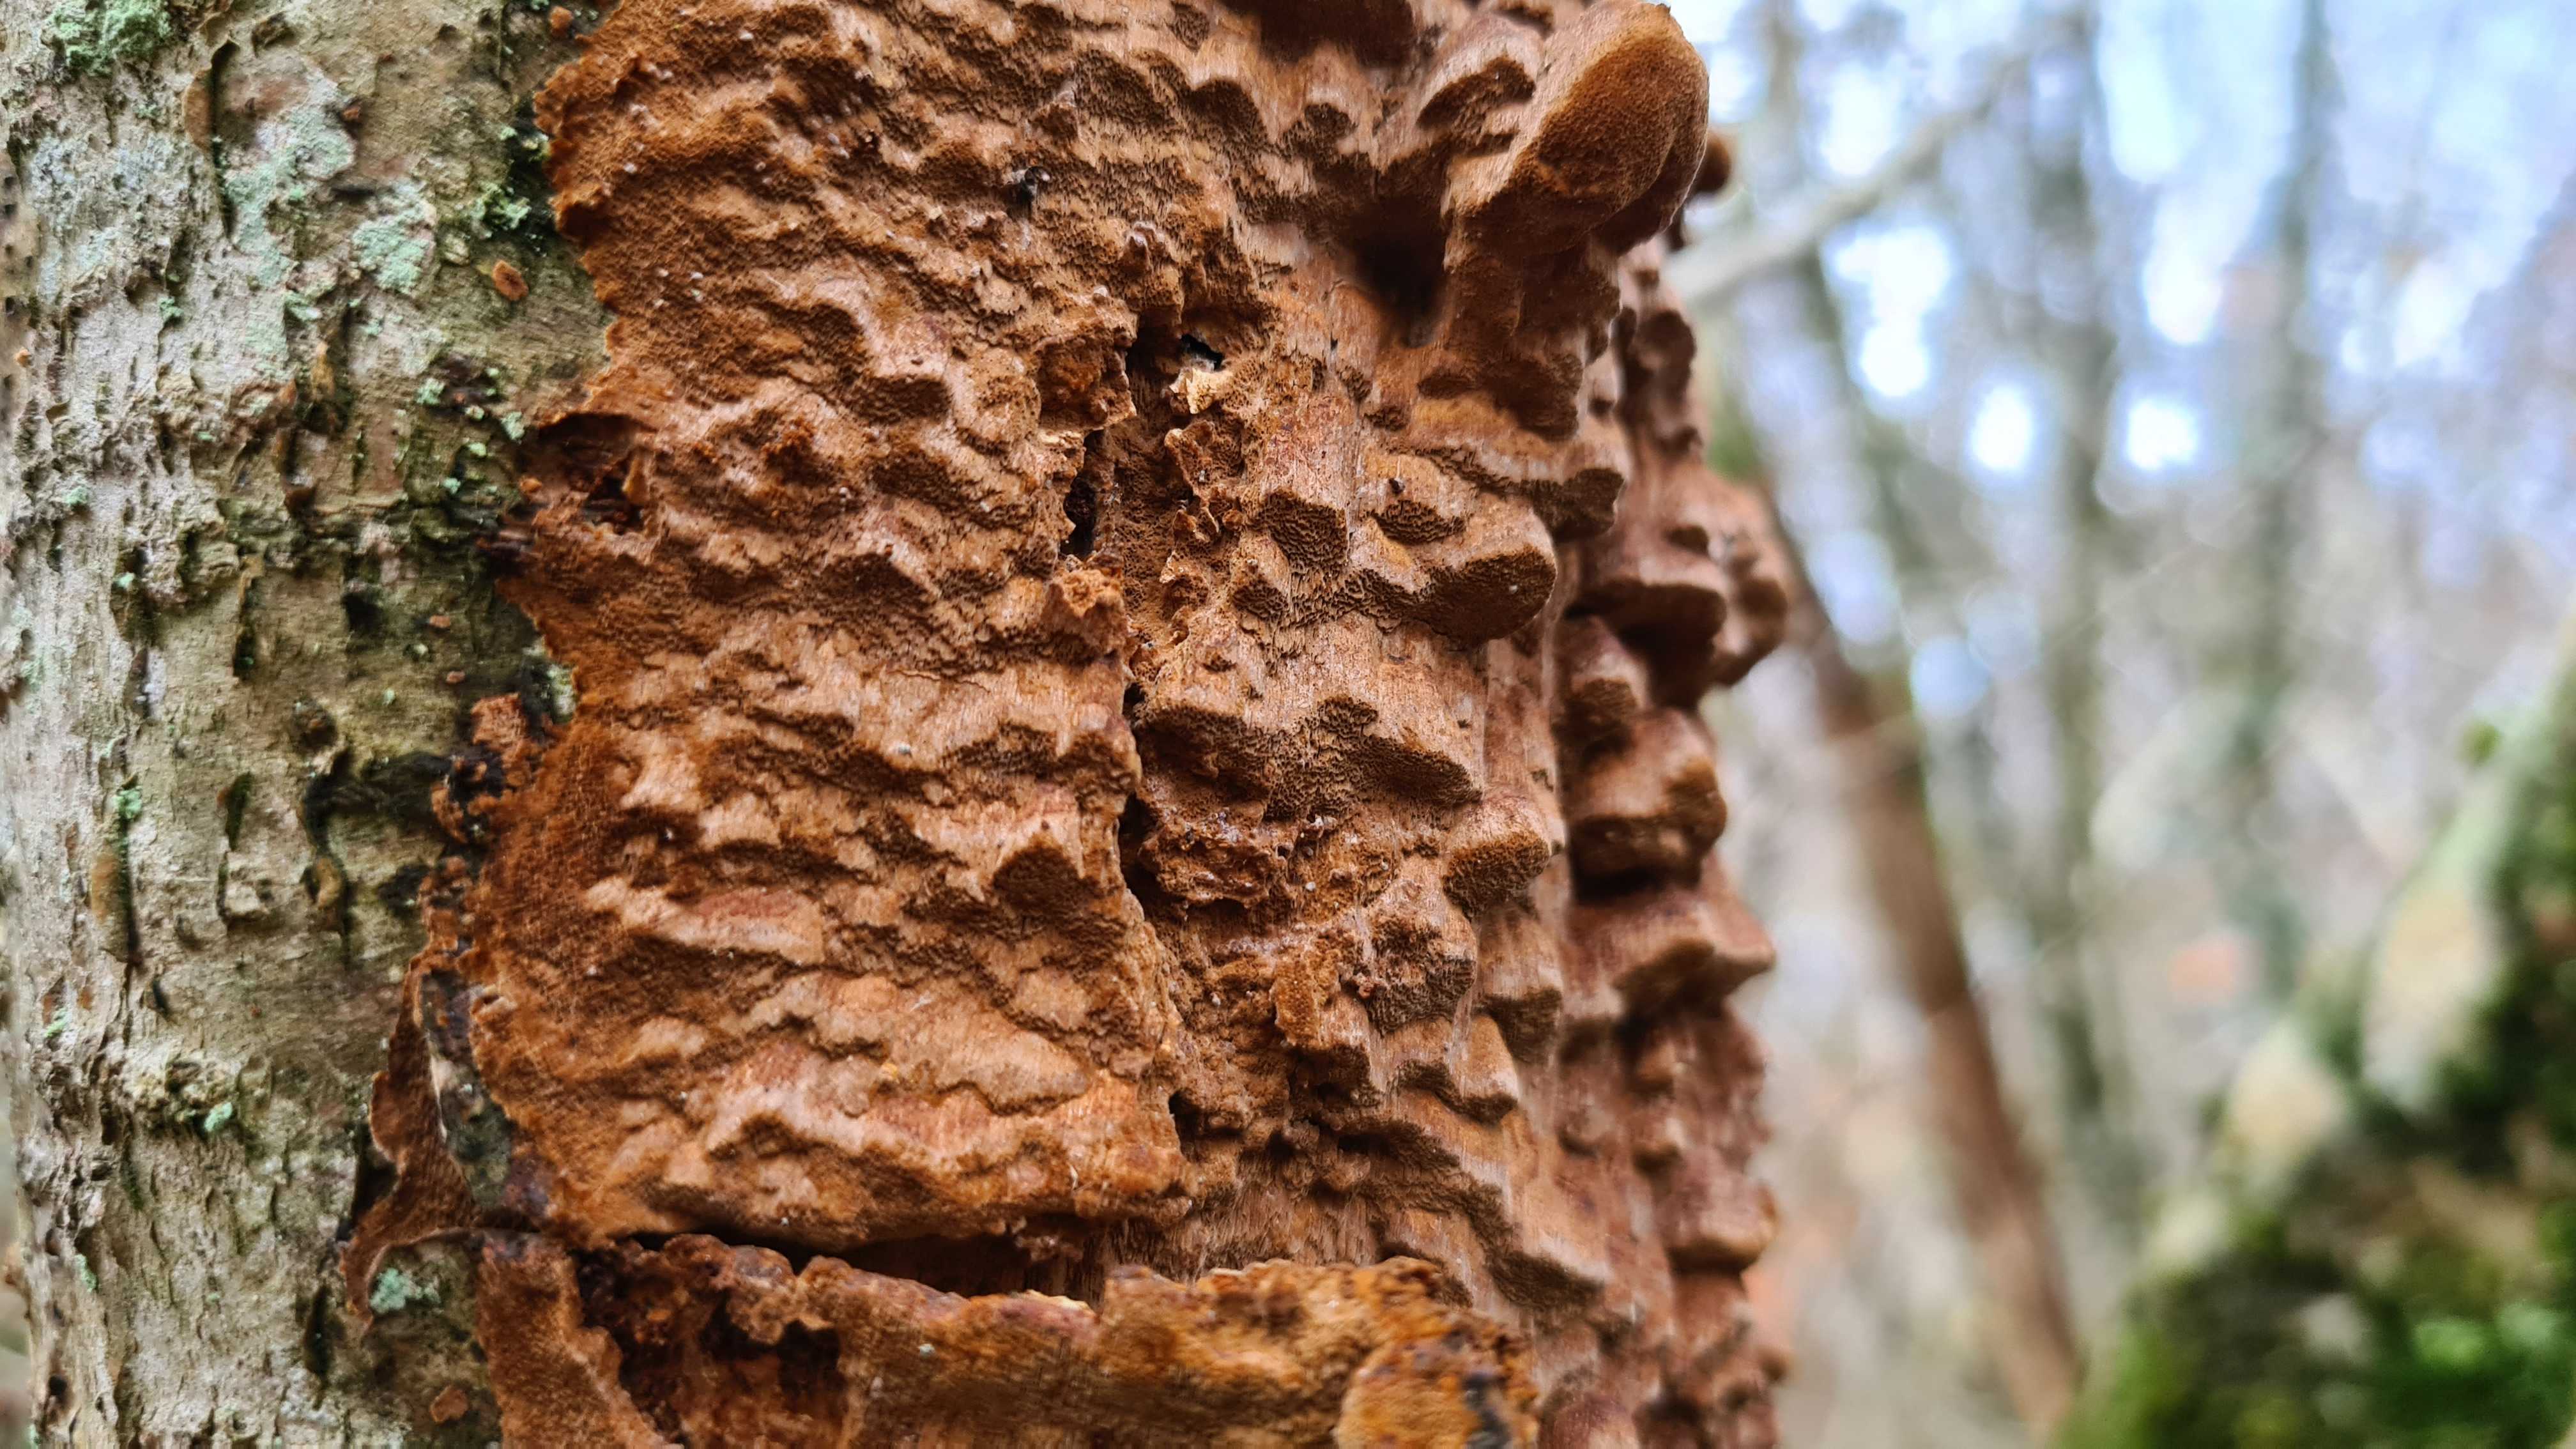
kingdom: Fungi
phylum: Basidiomycota
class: Agaricomycetes
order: Hymenochaetales
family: Hymenochaetaceae
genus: Fuscoporia
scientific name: Fuscoporia ferrea
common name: skorpe-ildporesvamp
